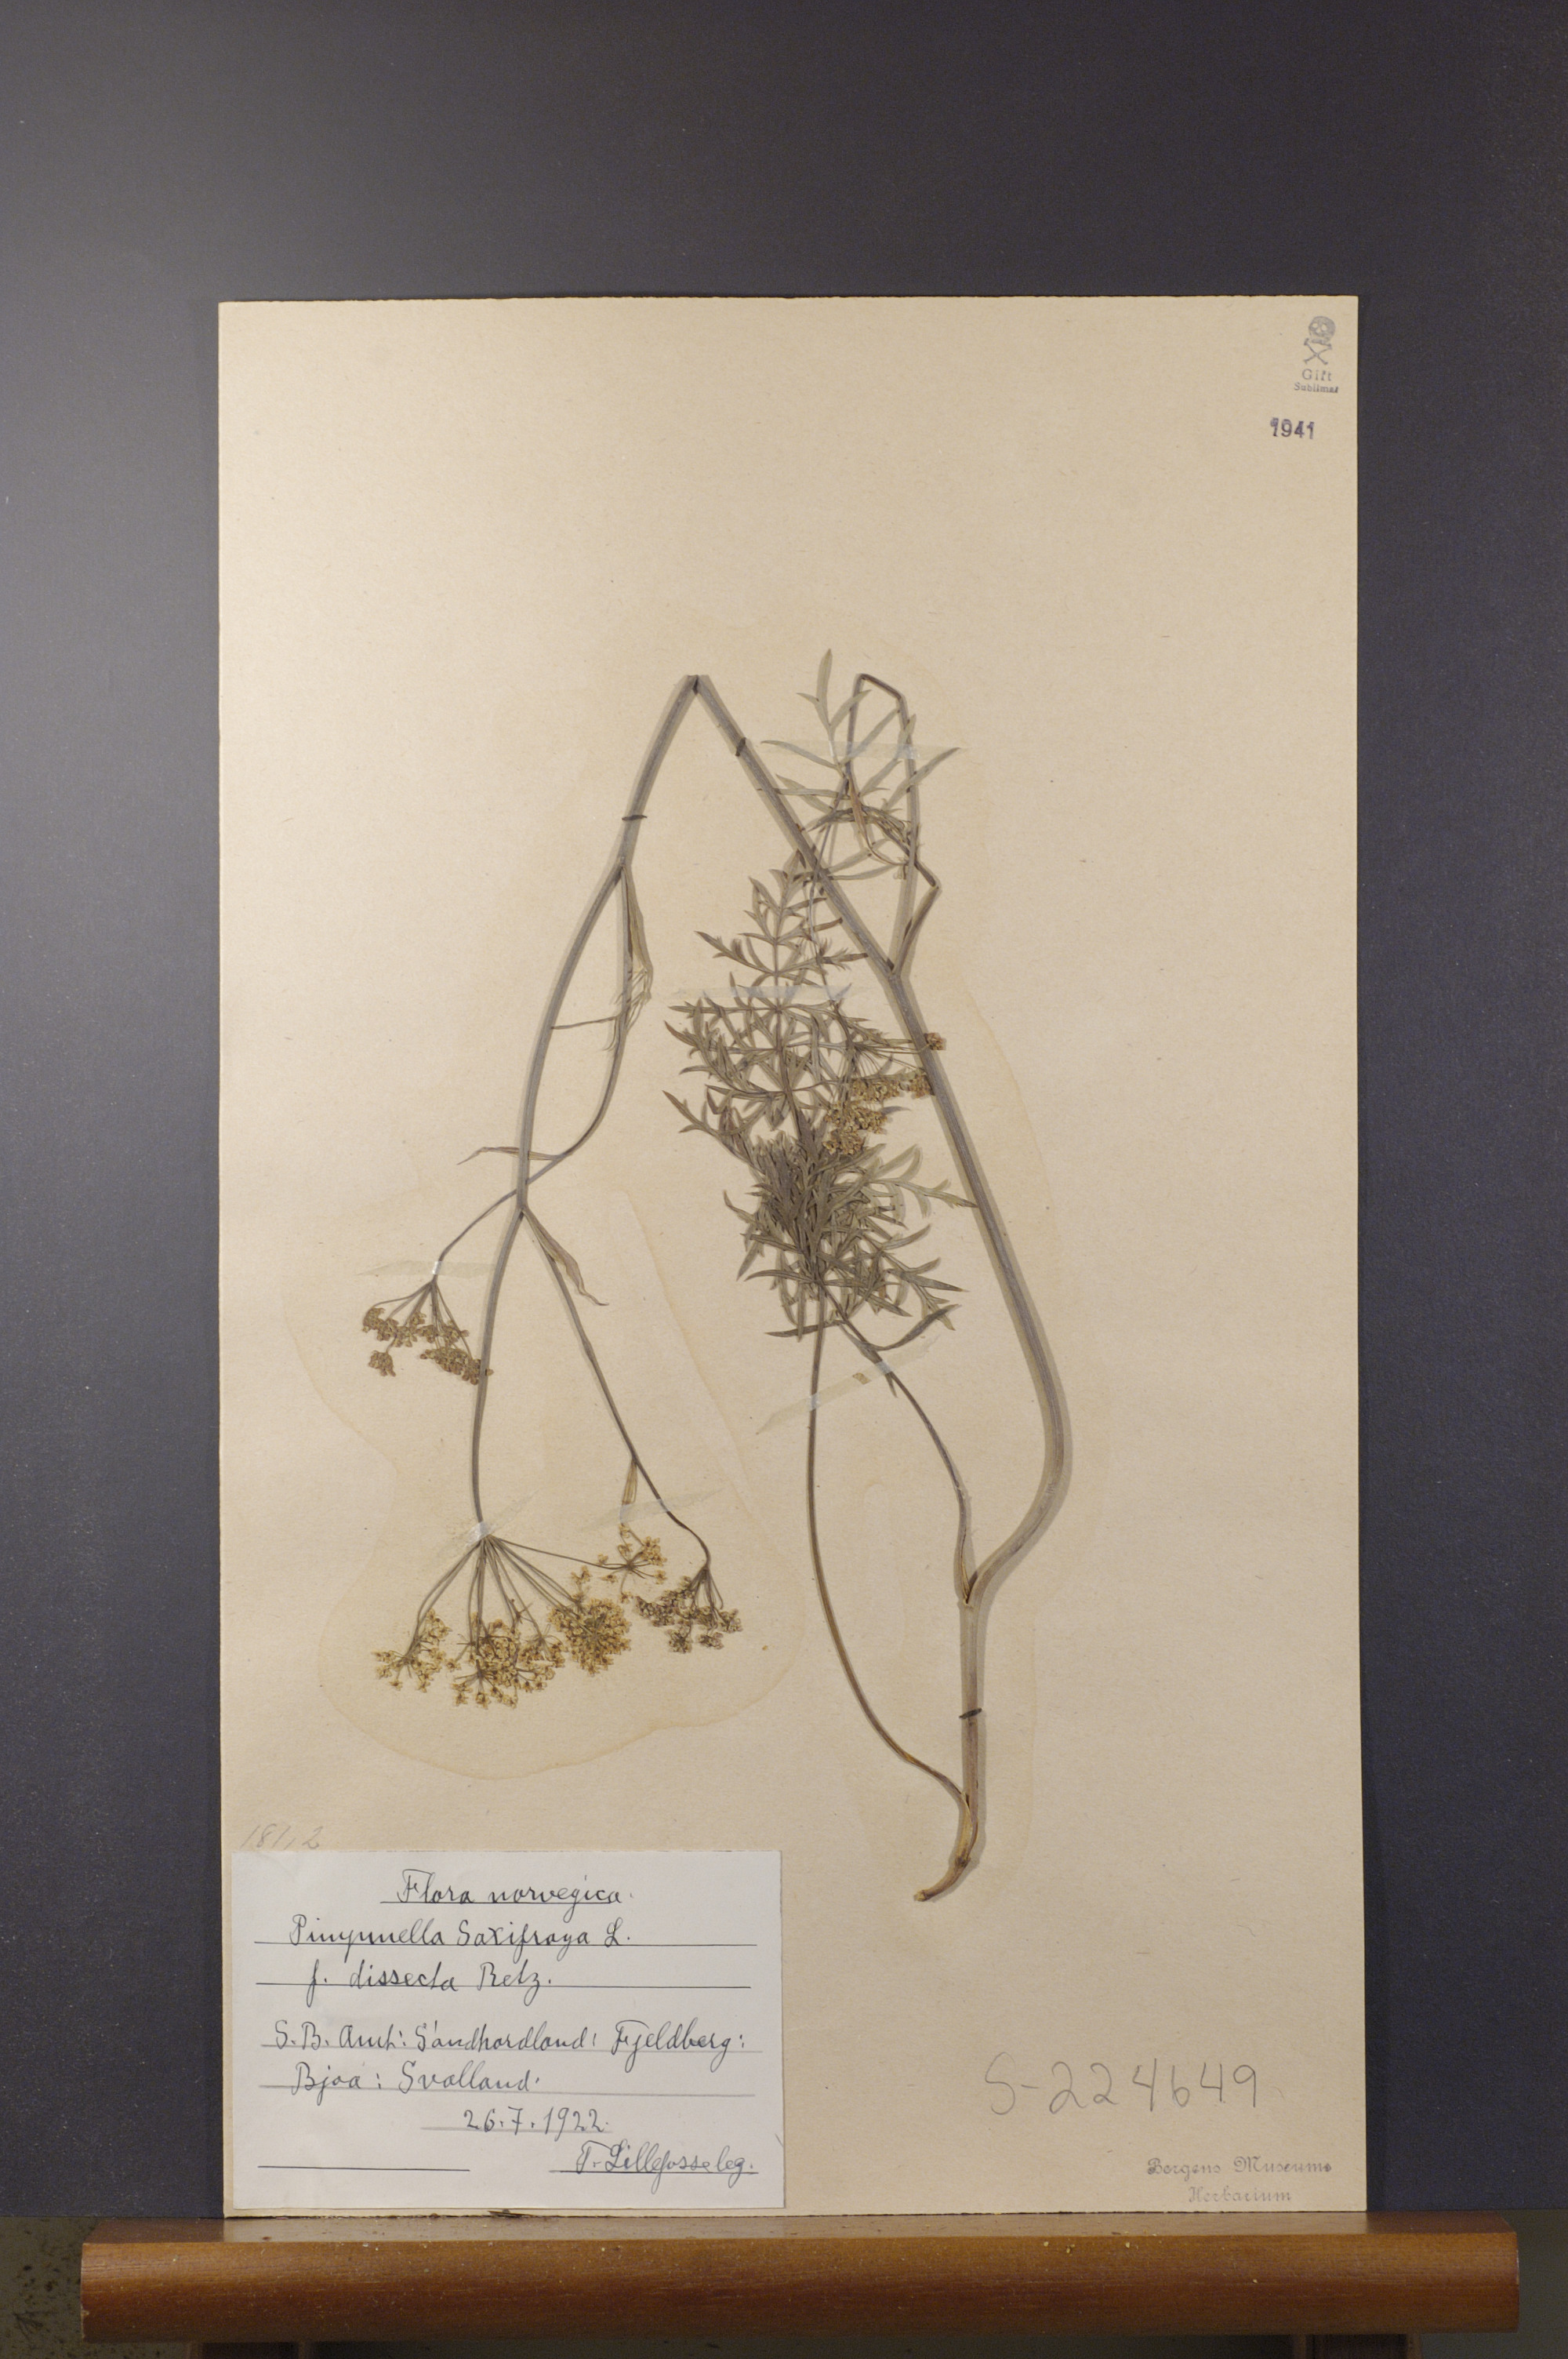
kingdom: Plantae
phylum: Tracheophyta
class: Magnoliopsida
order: Apiales
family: Apiaceae
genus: Pimpinella
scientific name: Pimpinella saxifraga
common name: Burnet-saxifrage
